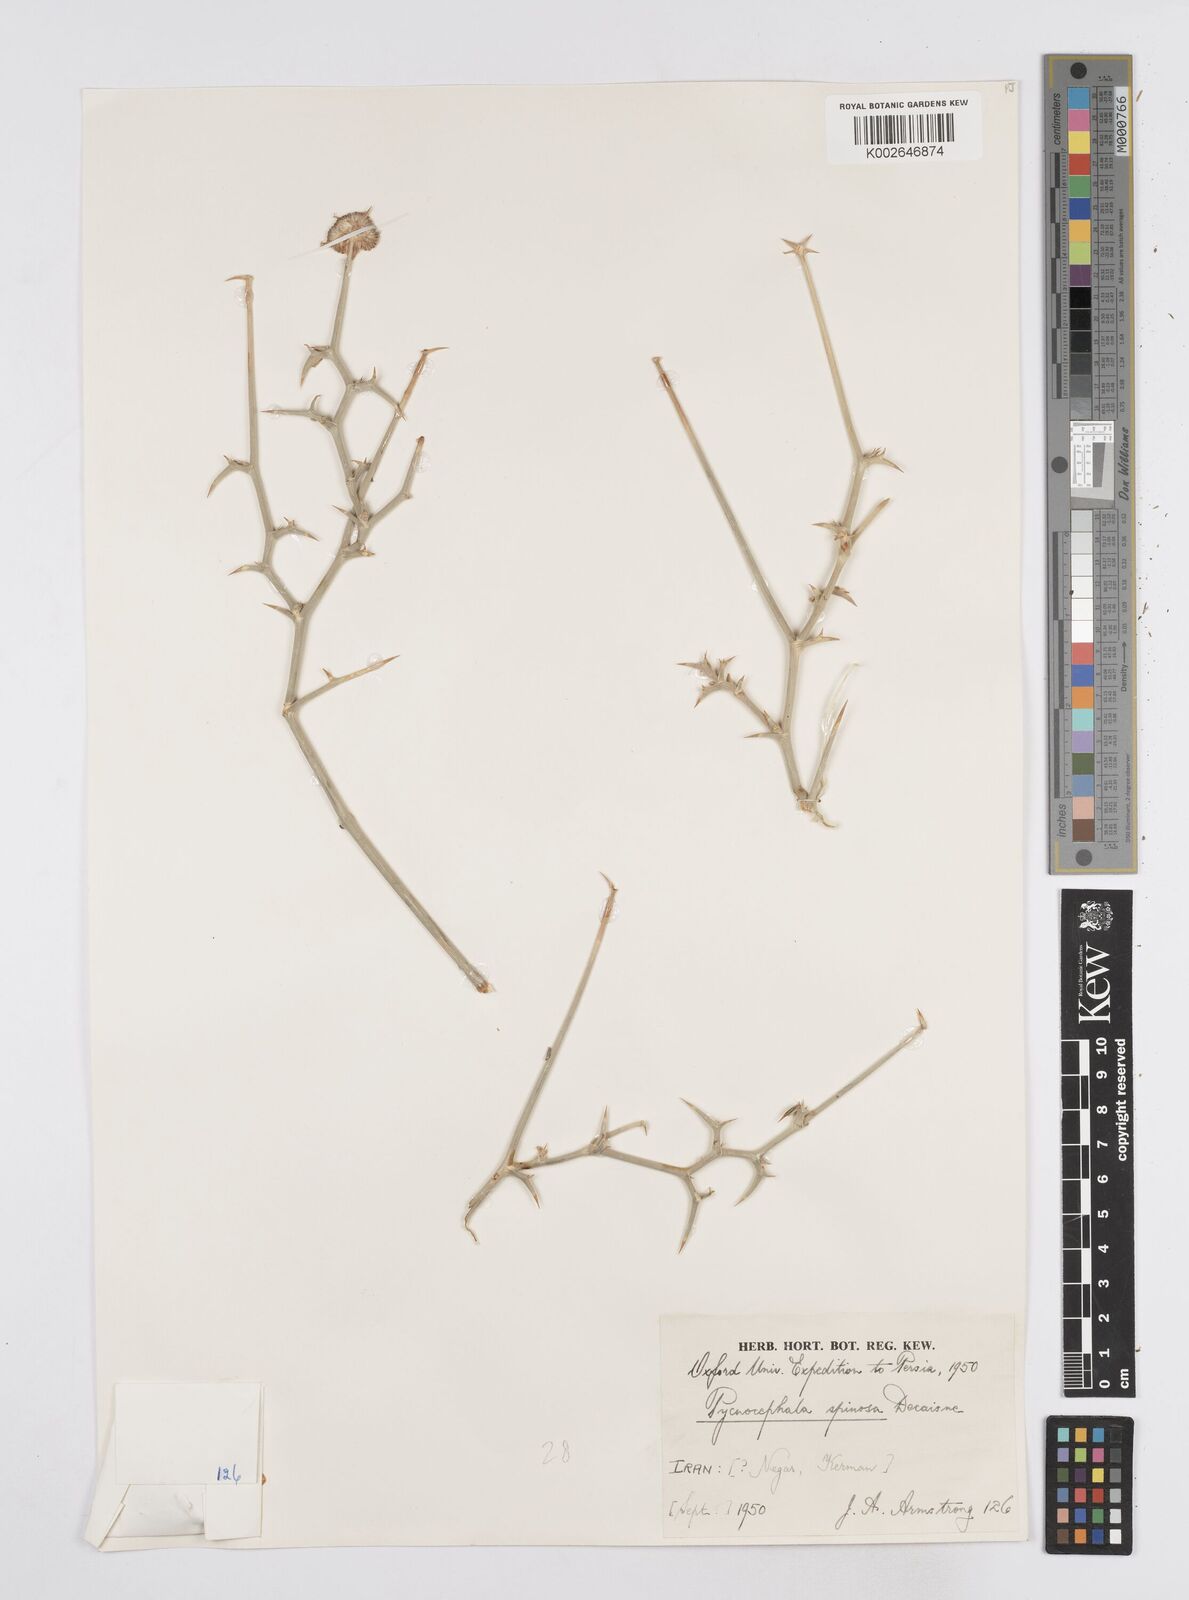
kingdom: Plantae
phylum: Tracheophyta
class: Magnoliopsida
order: Apiales
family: Apiaceae
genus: Pycnocycla
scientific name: Pycnocycla spinosa
